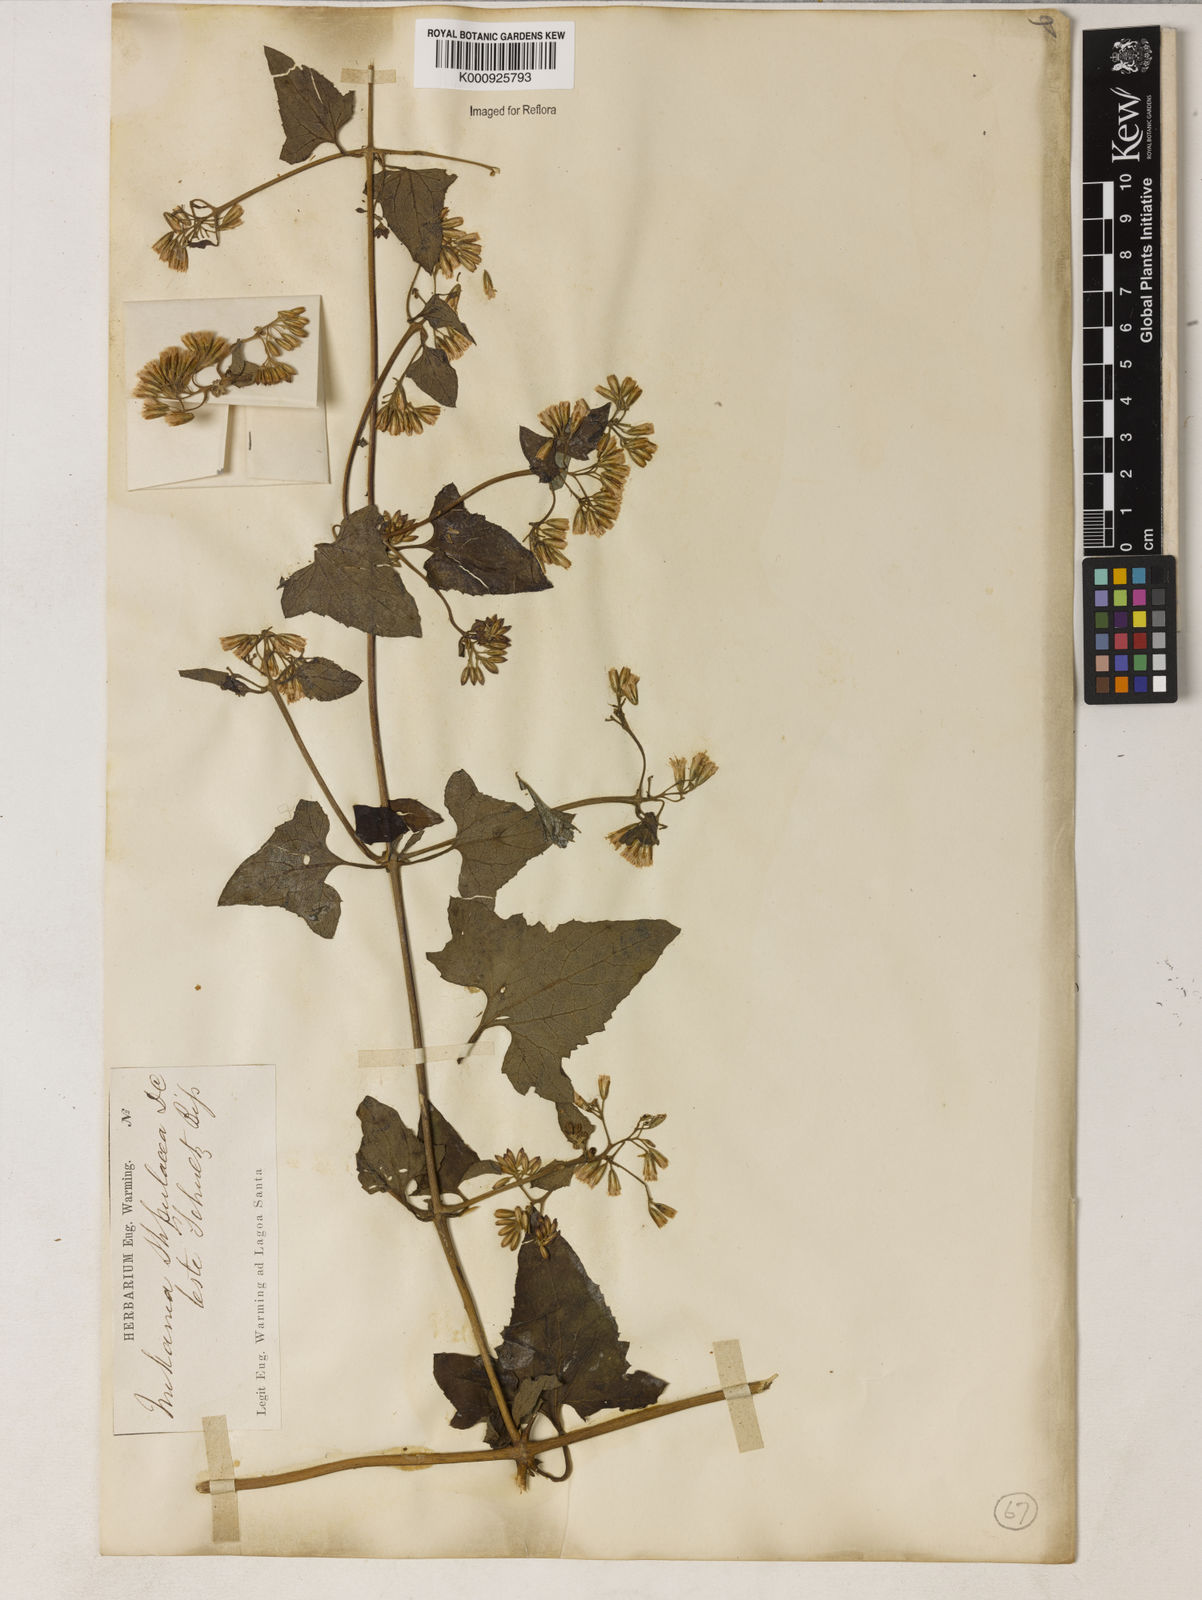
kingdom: Plantae
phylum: Tracheophyta
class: Magnoliopsida
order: Asterales
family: Asteraceae
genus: Mikania
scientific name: Mikania stipulacea
